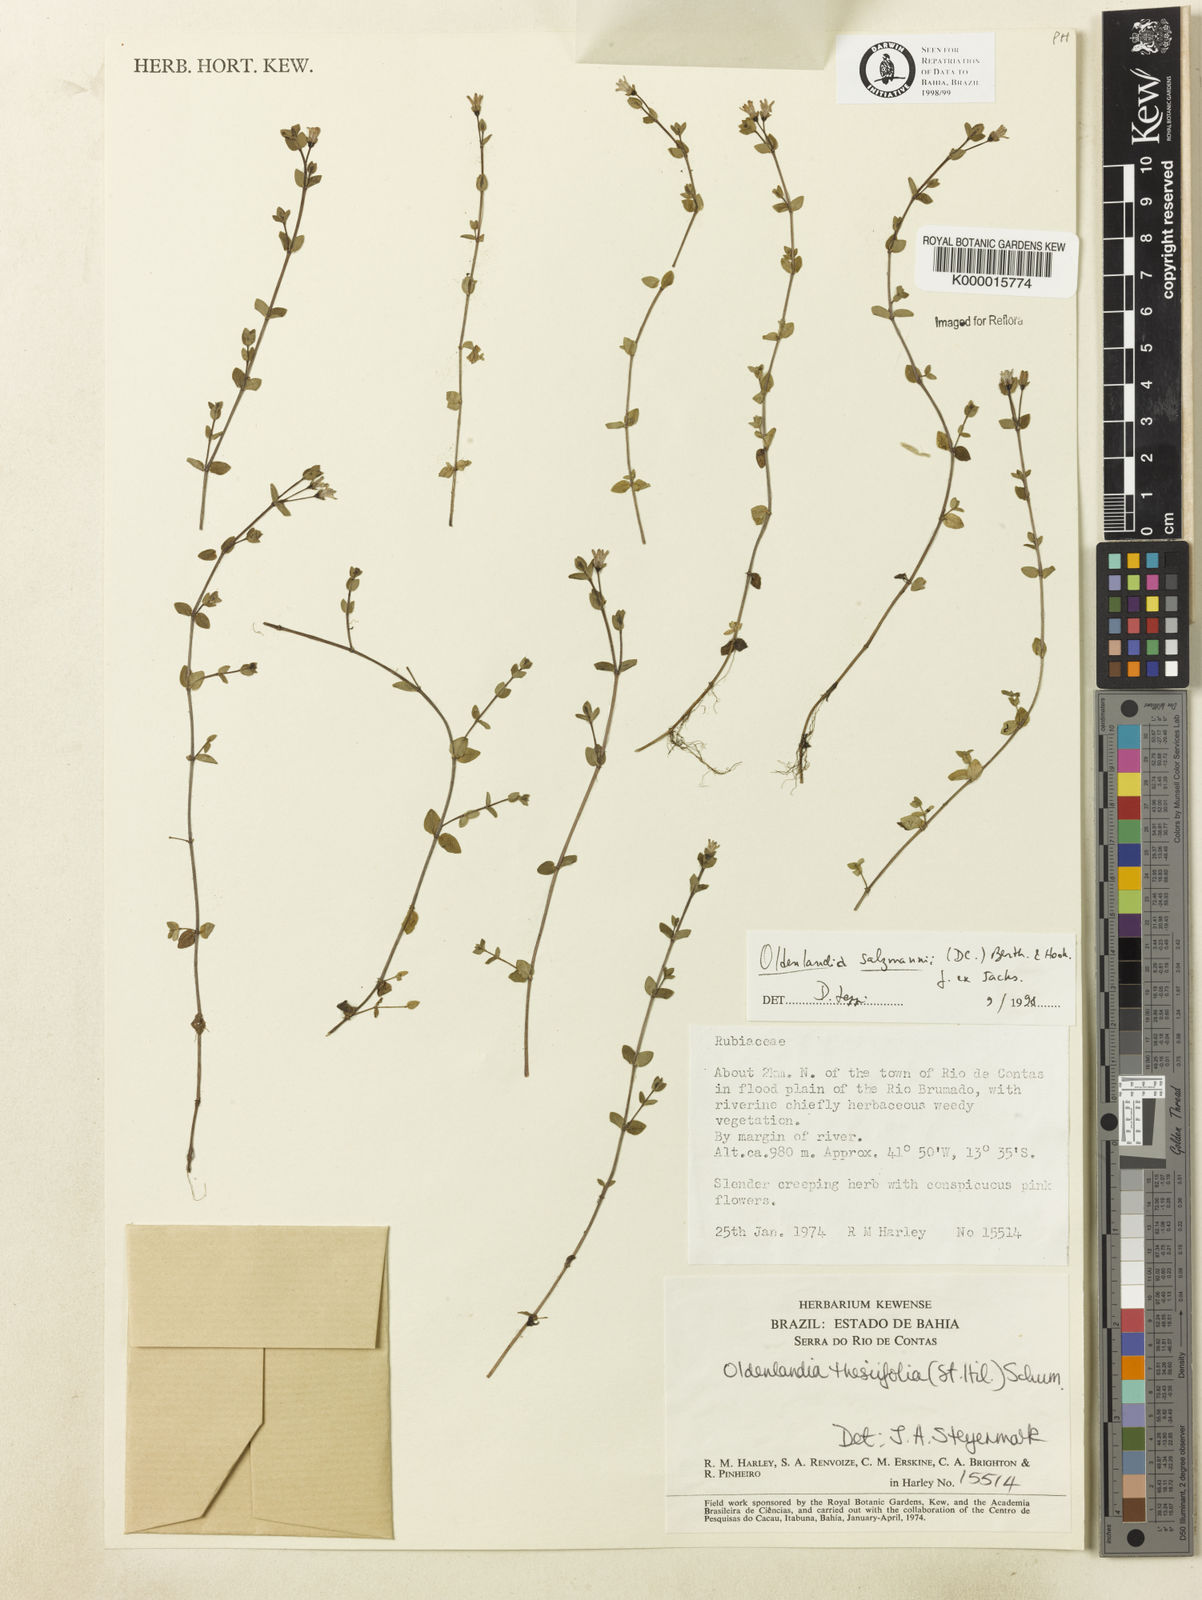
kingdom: Plantae
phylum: Tracheophyta
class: Magnoliopsida
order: Gentianales
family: Rubiaceae
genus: Oldenlandia
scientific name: Oldenlandia salzmannii
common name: Salzmann's mille graines
